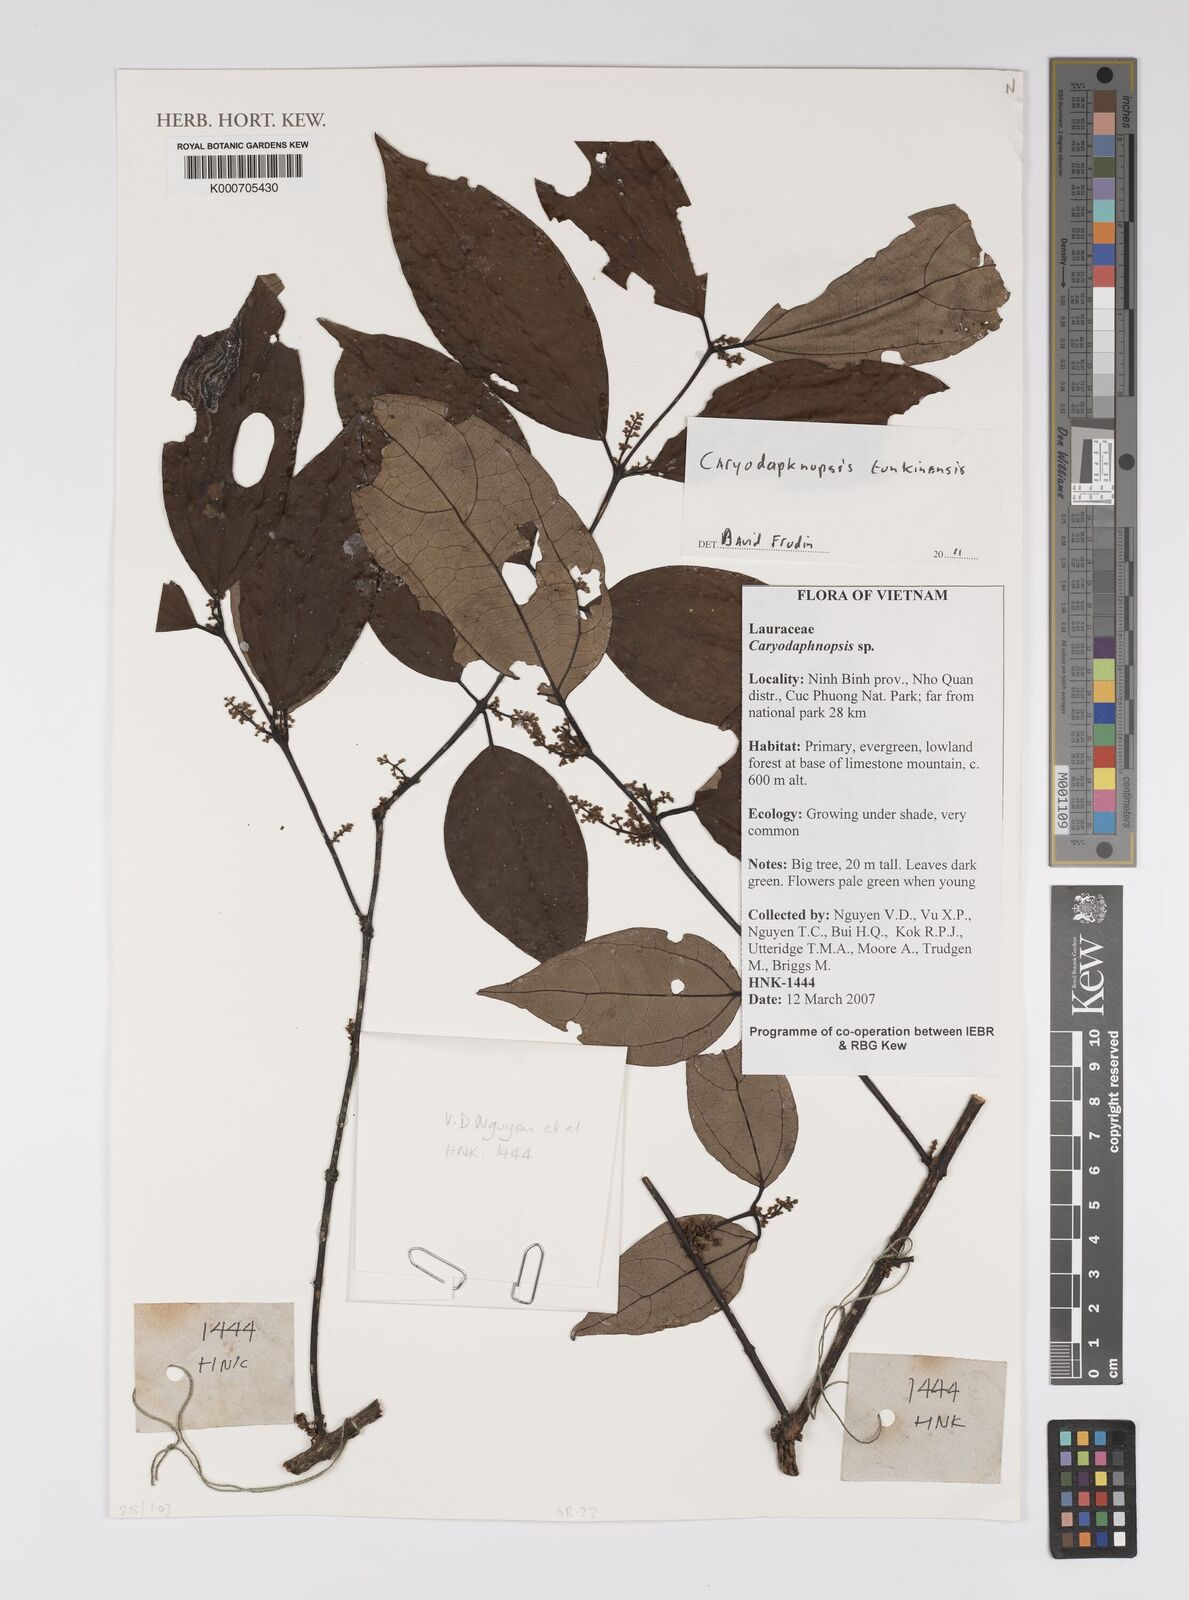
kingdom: Plantae
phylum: Tracheophyta
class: Magnoliopsida
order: Laurales
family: Lauraceae
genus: Caryodaphnopsis
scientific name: Caryodaphnopsis tonkinensis
